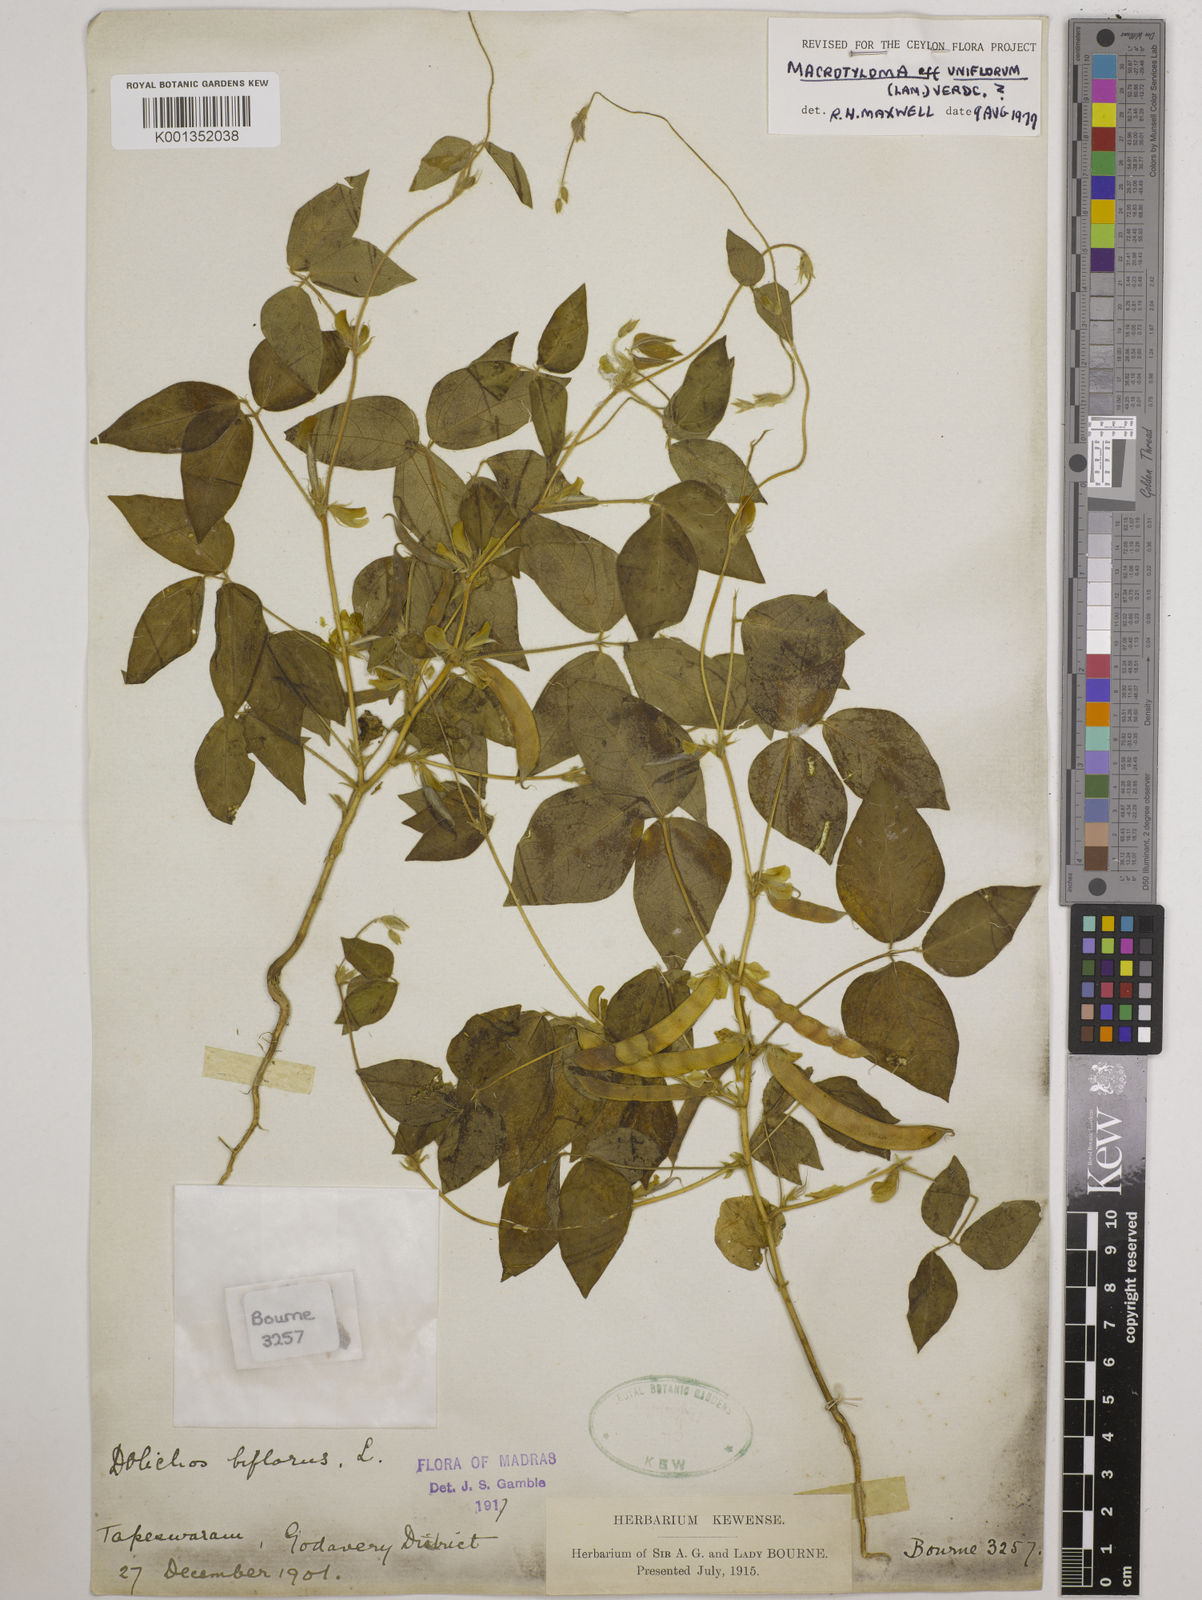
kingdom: Plantae
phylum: Tracheophyta
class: Magnoliopsida
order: Fabales
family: Fabaceae
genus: Macrotyloma
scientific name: Macrotyloma uniflorum
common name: Horse gram
